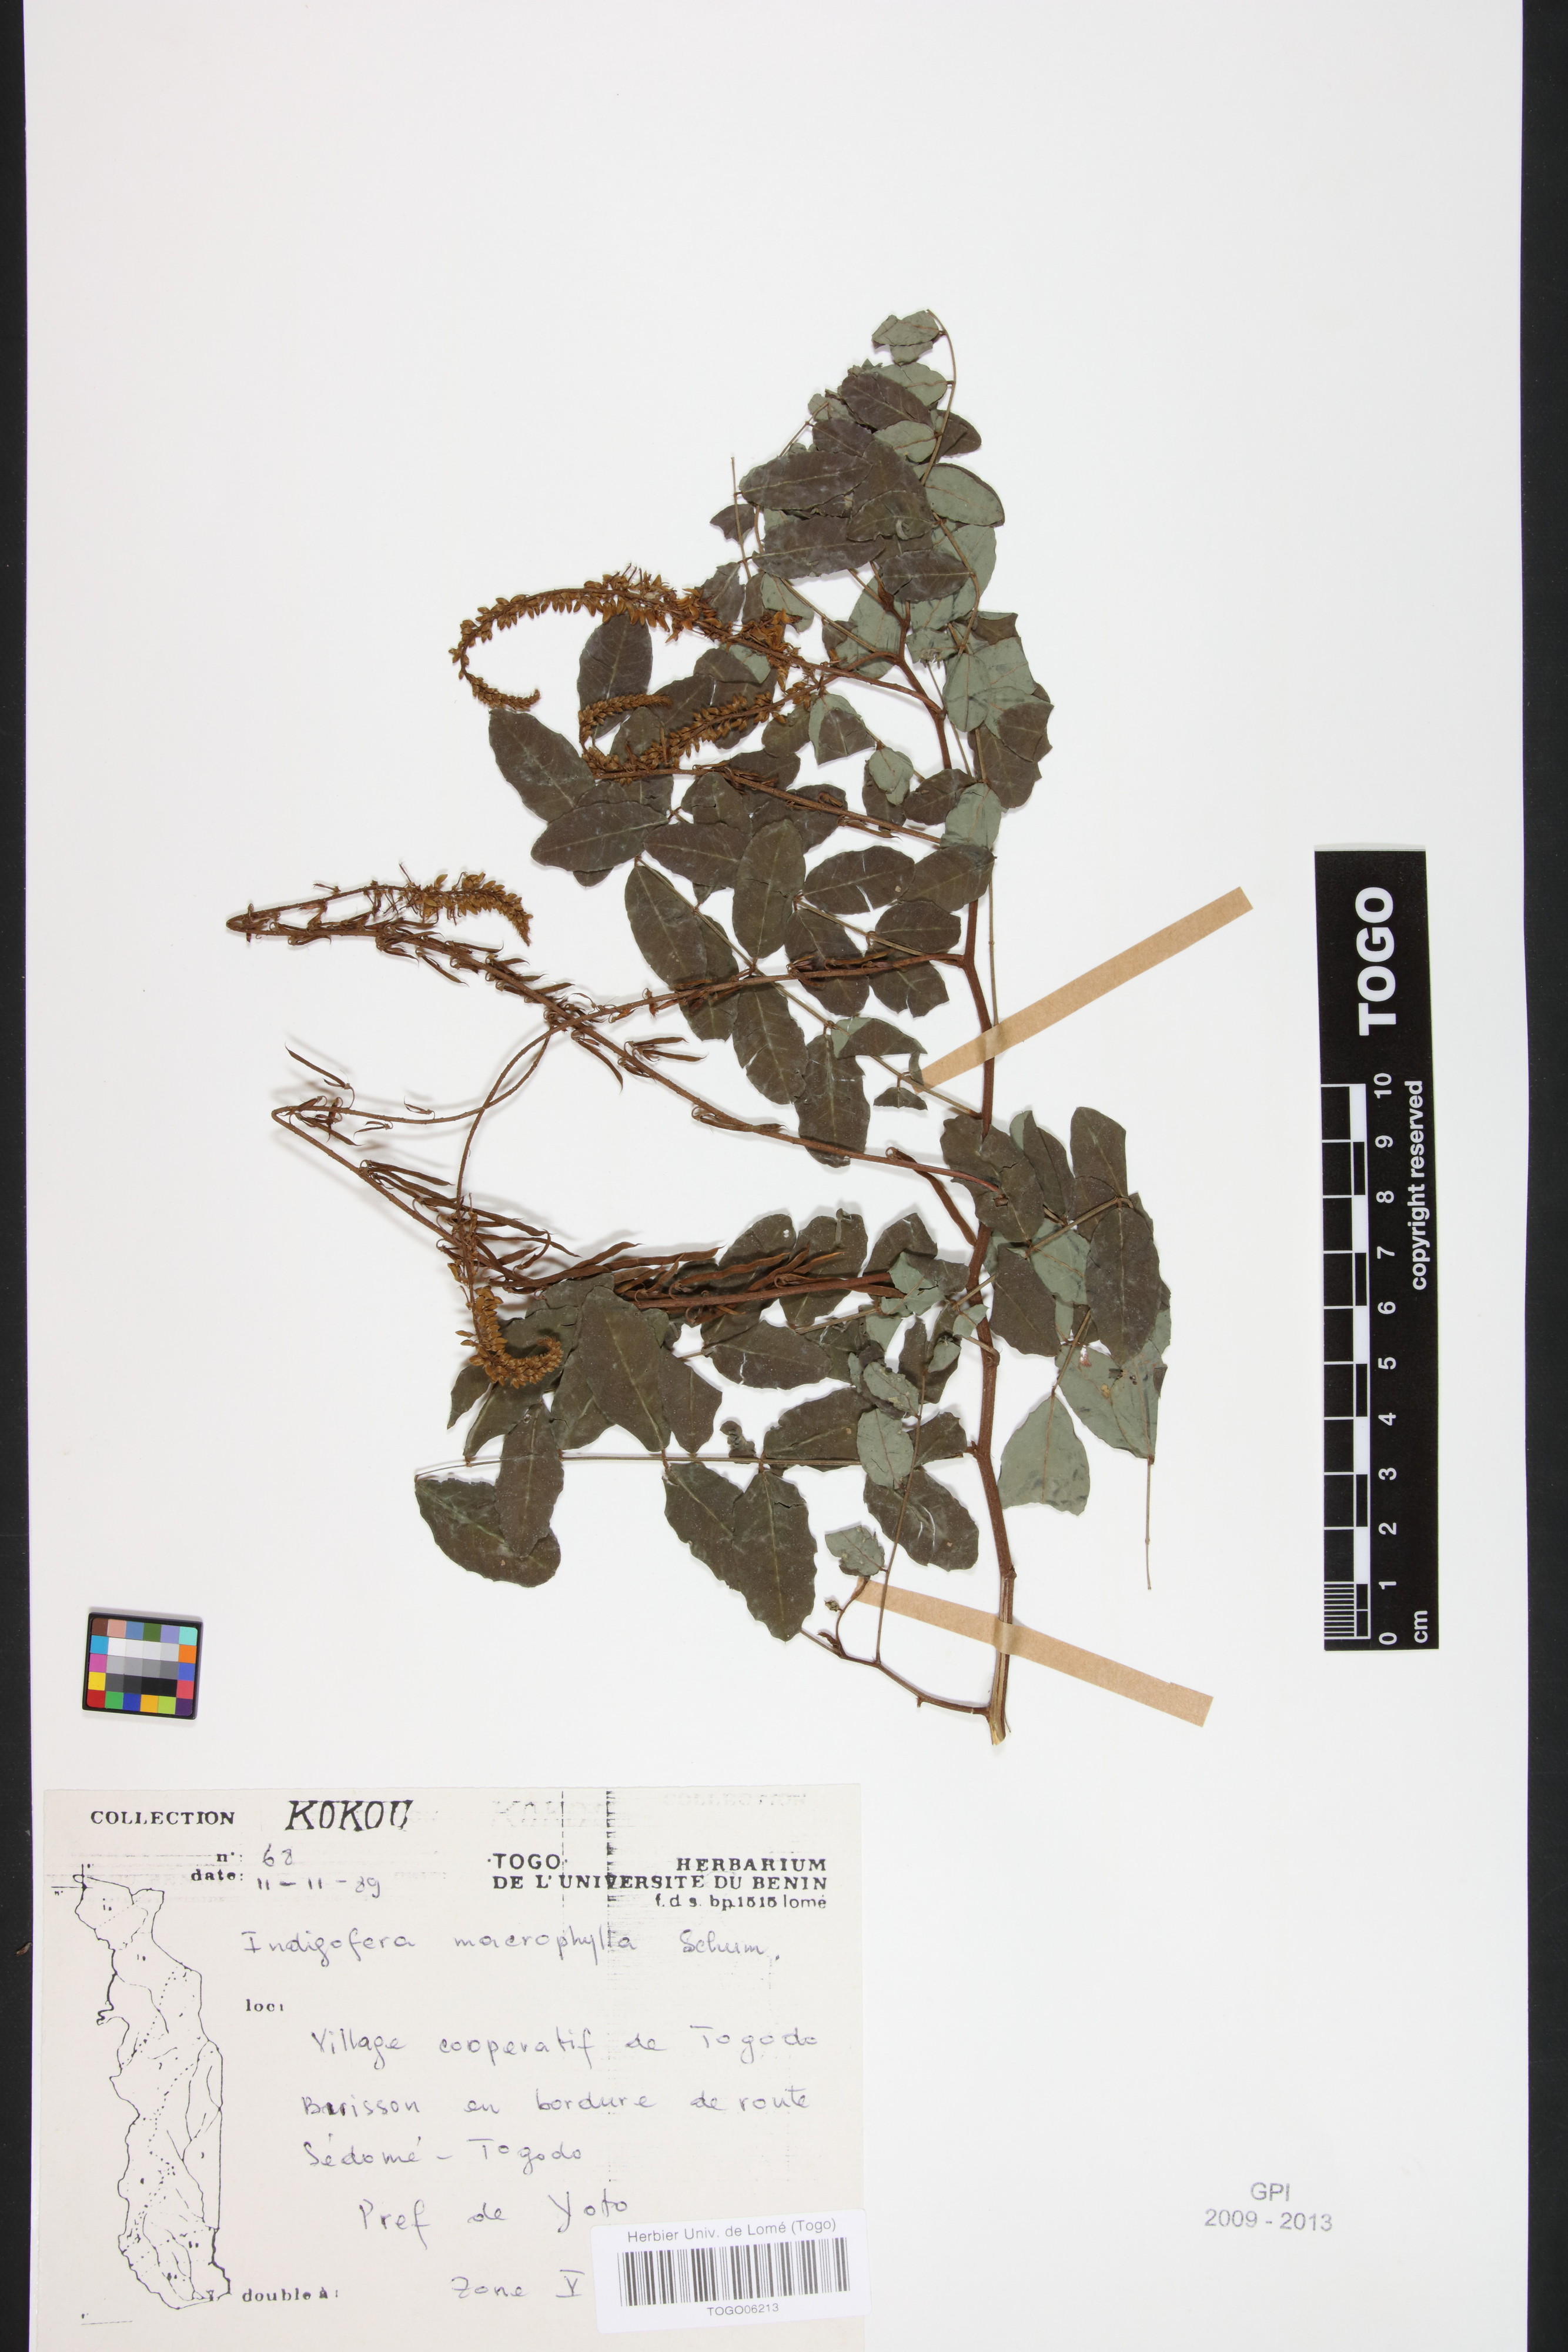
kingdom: Plantae
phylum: Tracheophyta
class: Magnoliopsida
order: Fabales
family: Fabaceae
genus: Indigofera
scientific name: Indigofera macrophylla
